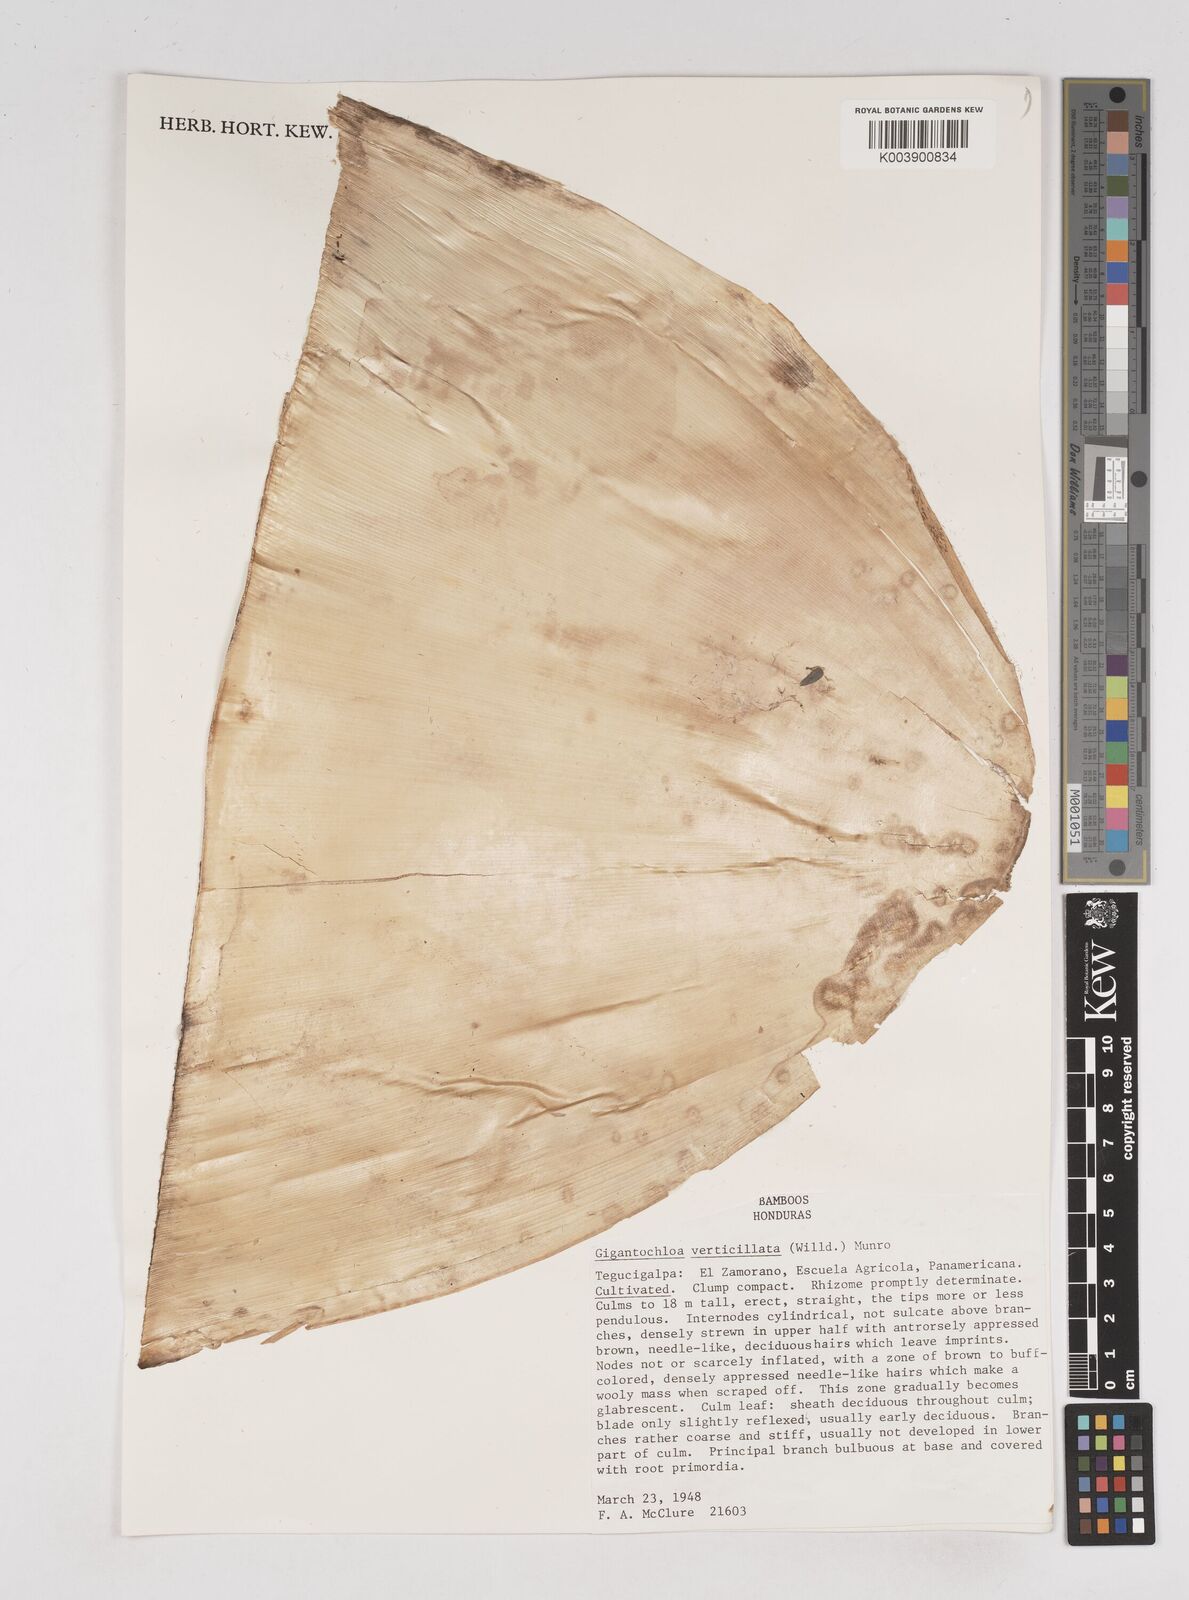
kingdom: Plantae
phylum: Tracheophyta
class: Liliopsida
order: Poales
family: Poaceae
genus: Gigantochloa
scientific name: Gigantochloa verticillata
